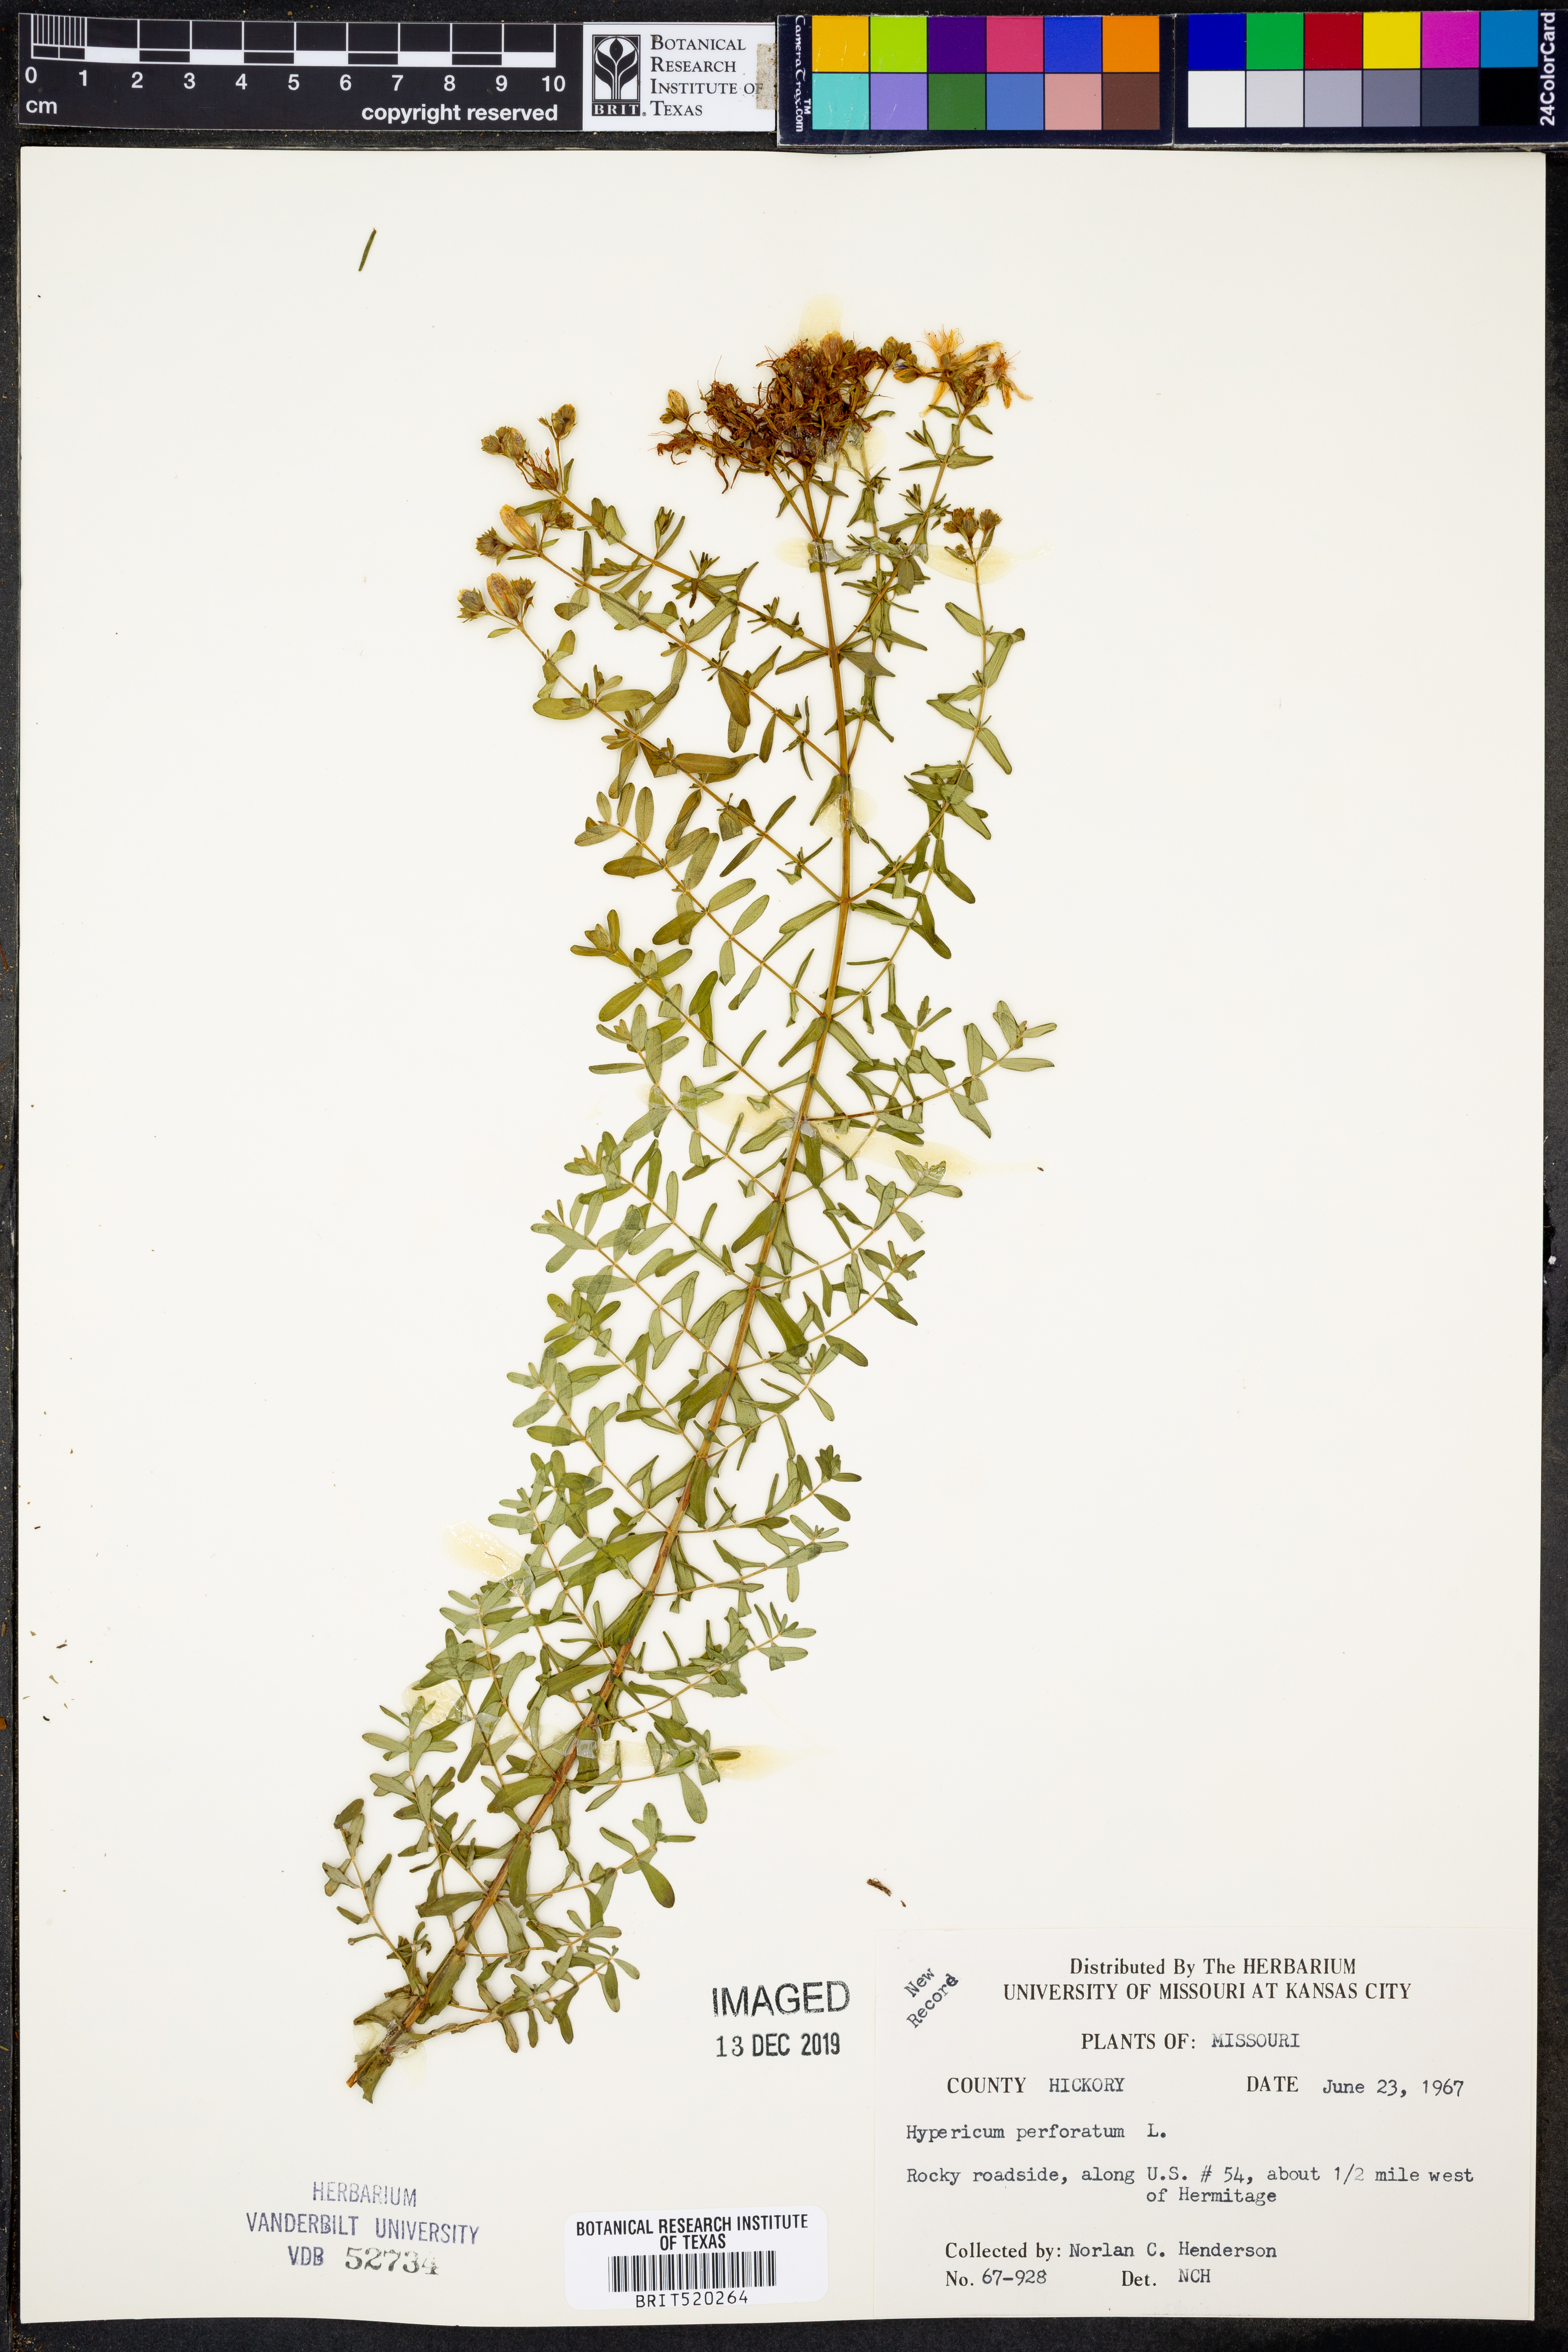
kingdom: Plantae
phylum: Tracheophyta
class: Magnoliopsida
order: Malpighiales
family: Hypericaceae
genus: Hypericum
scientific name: Hypericum perforatum
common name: Common st. johnswort
